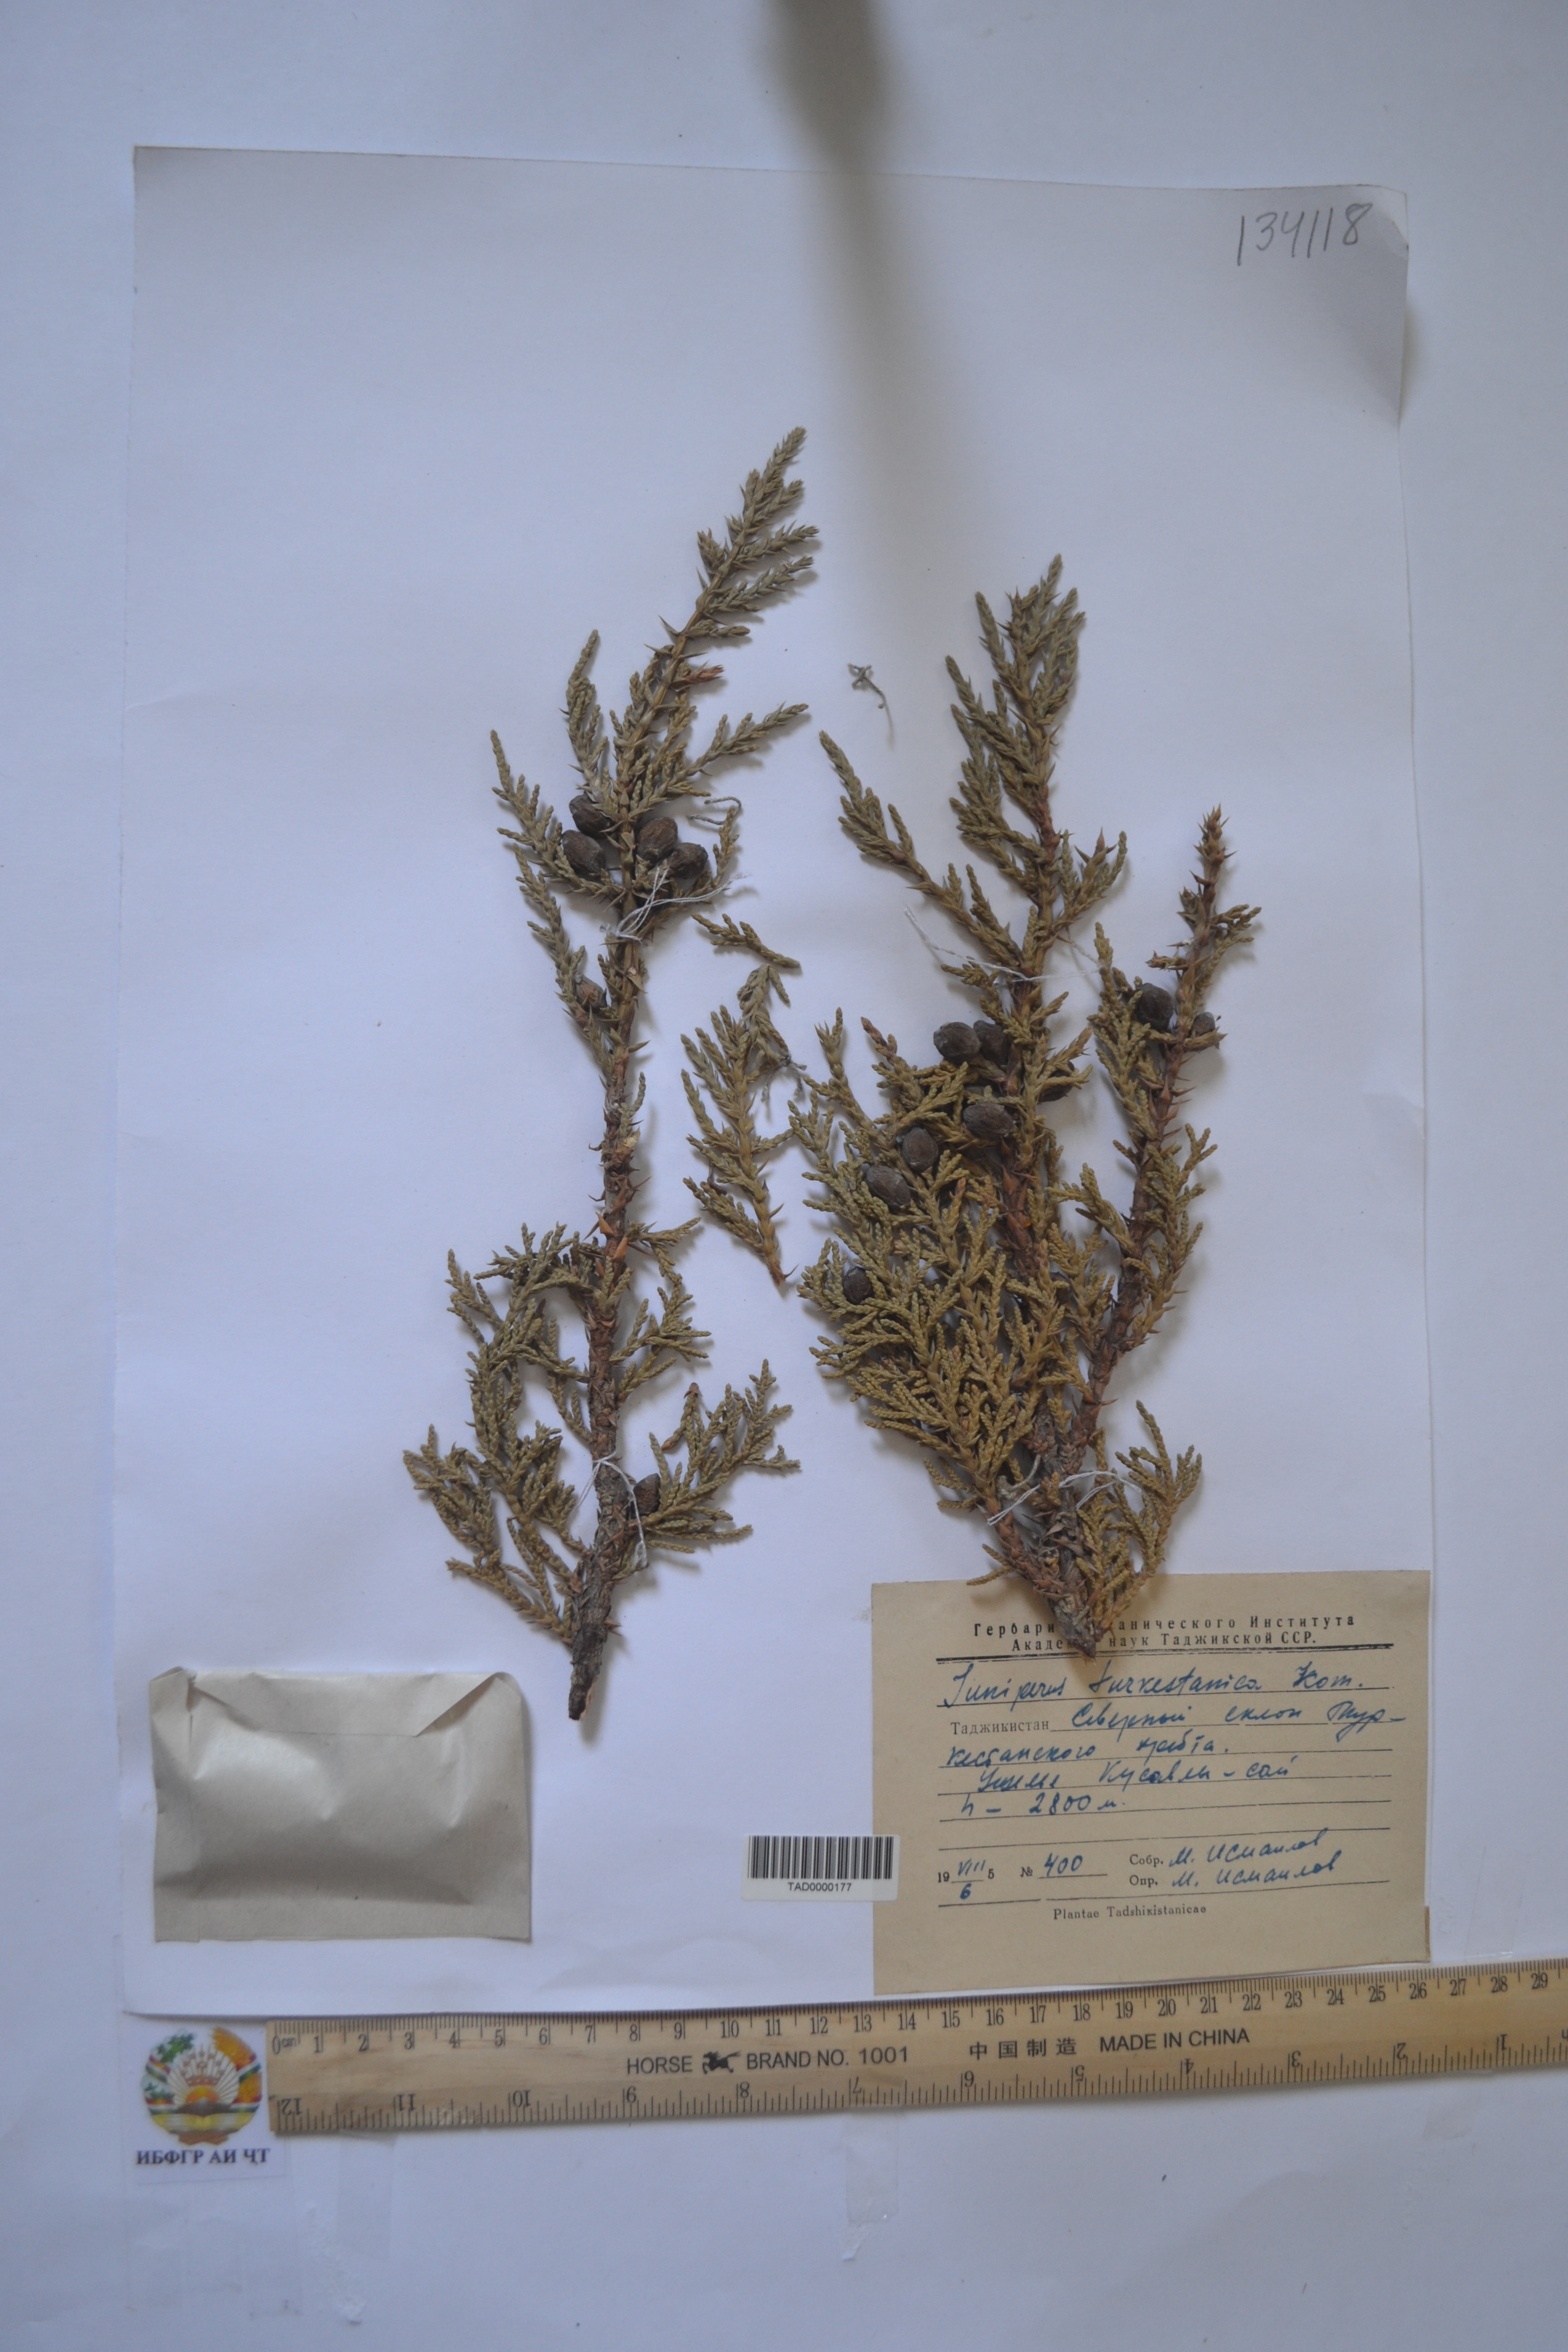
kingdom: Plantae
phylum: Tracheophyta
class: Pinopsida
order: Pinales
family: Cupressaceae
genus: Juniperus
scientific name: Juniperus pseudosabina
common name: Turkestan juniper
